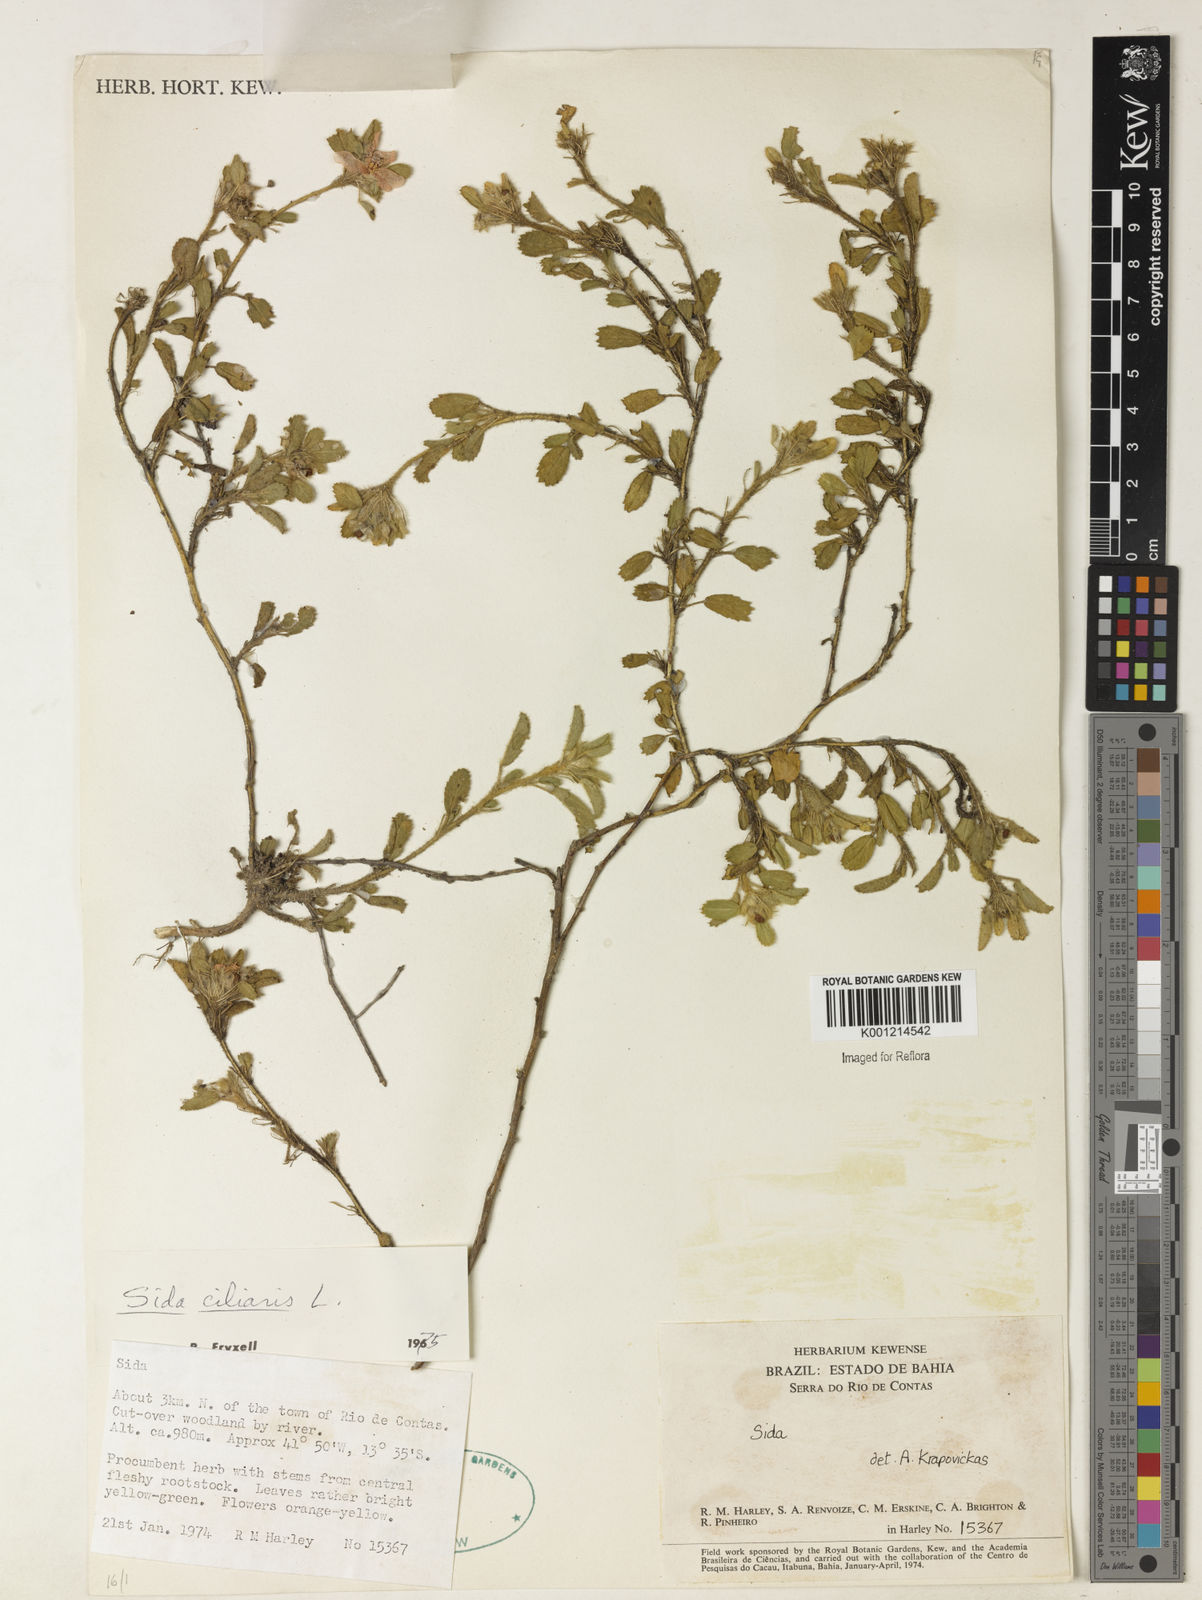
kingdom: Plantae
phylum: Tracheophyta
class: Magnoliopsida
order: Malvales
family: Malvaceae
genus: Sida
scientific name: Sida ciliaris
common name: Bracted fanpetals
